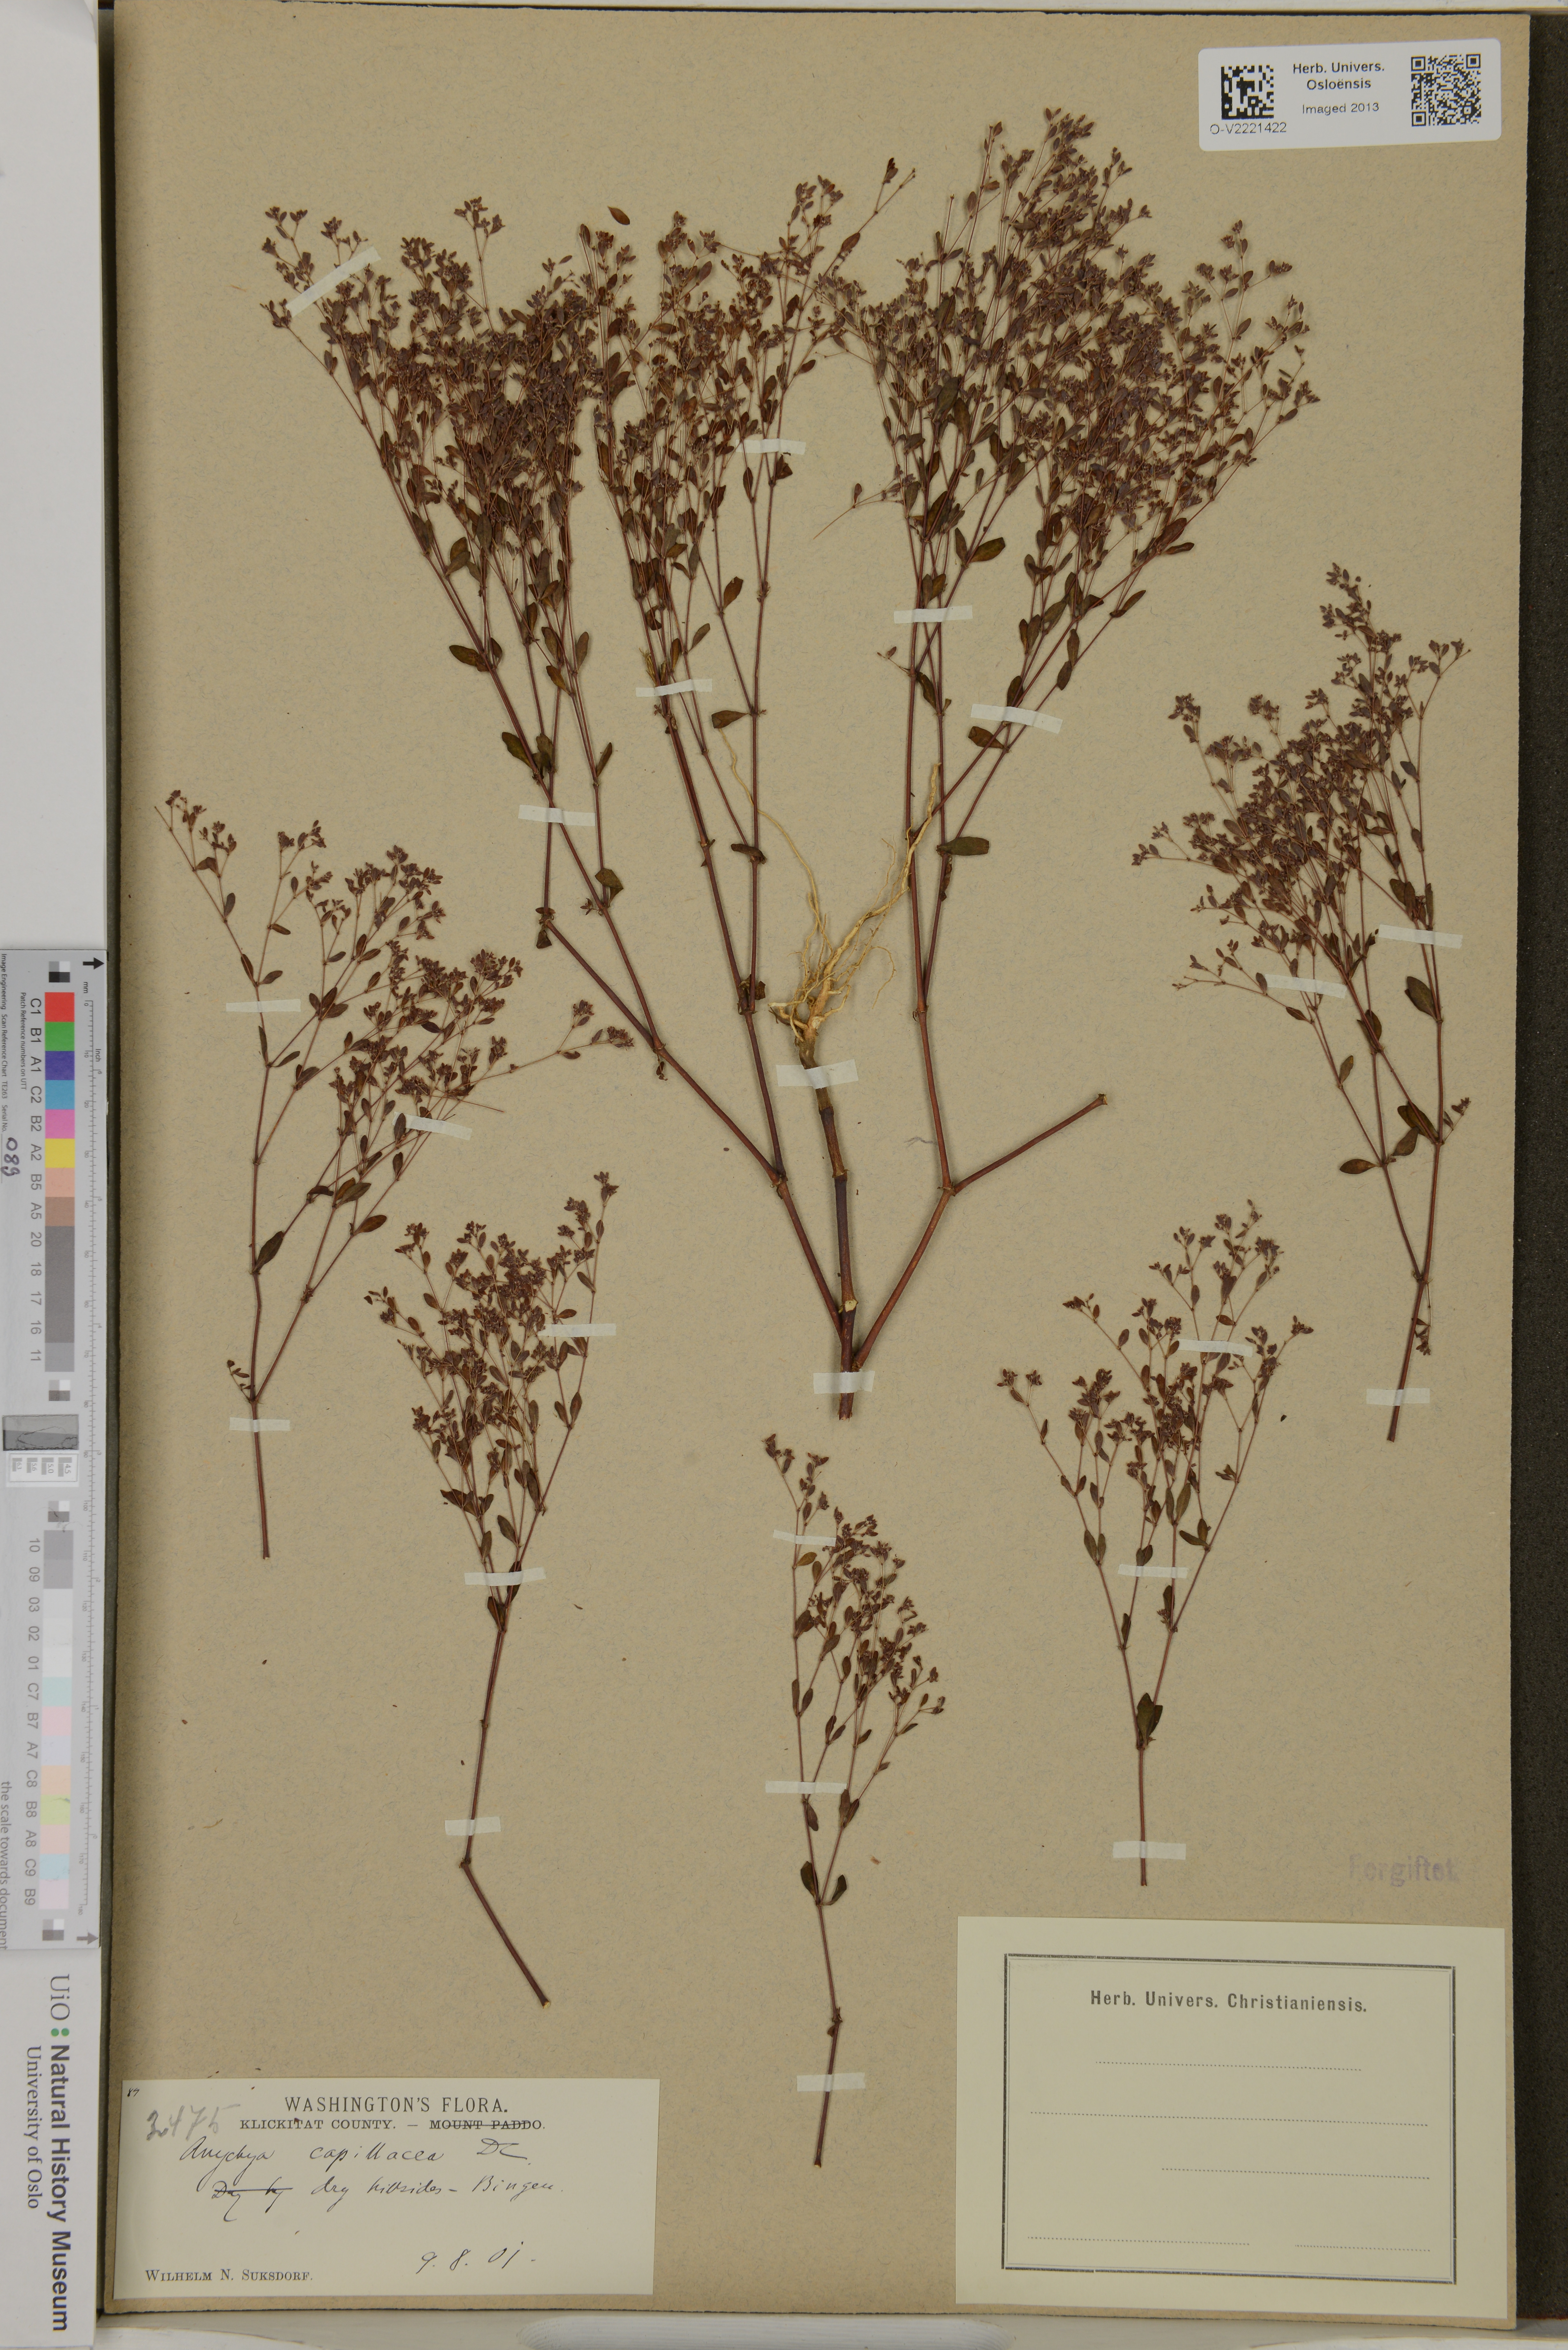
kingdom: Plantae
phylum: Tracheophyta
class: Magnoliopsida
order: Caryophyllales
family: Caryophyllaceae
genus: Paronychia
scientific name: Paronychia canadensis
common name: Canada forked nailwort
